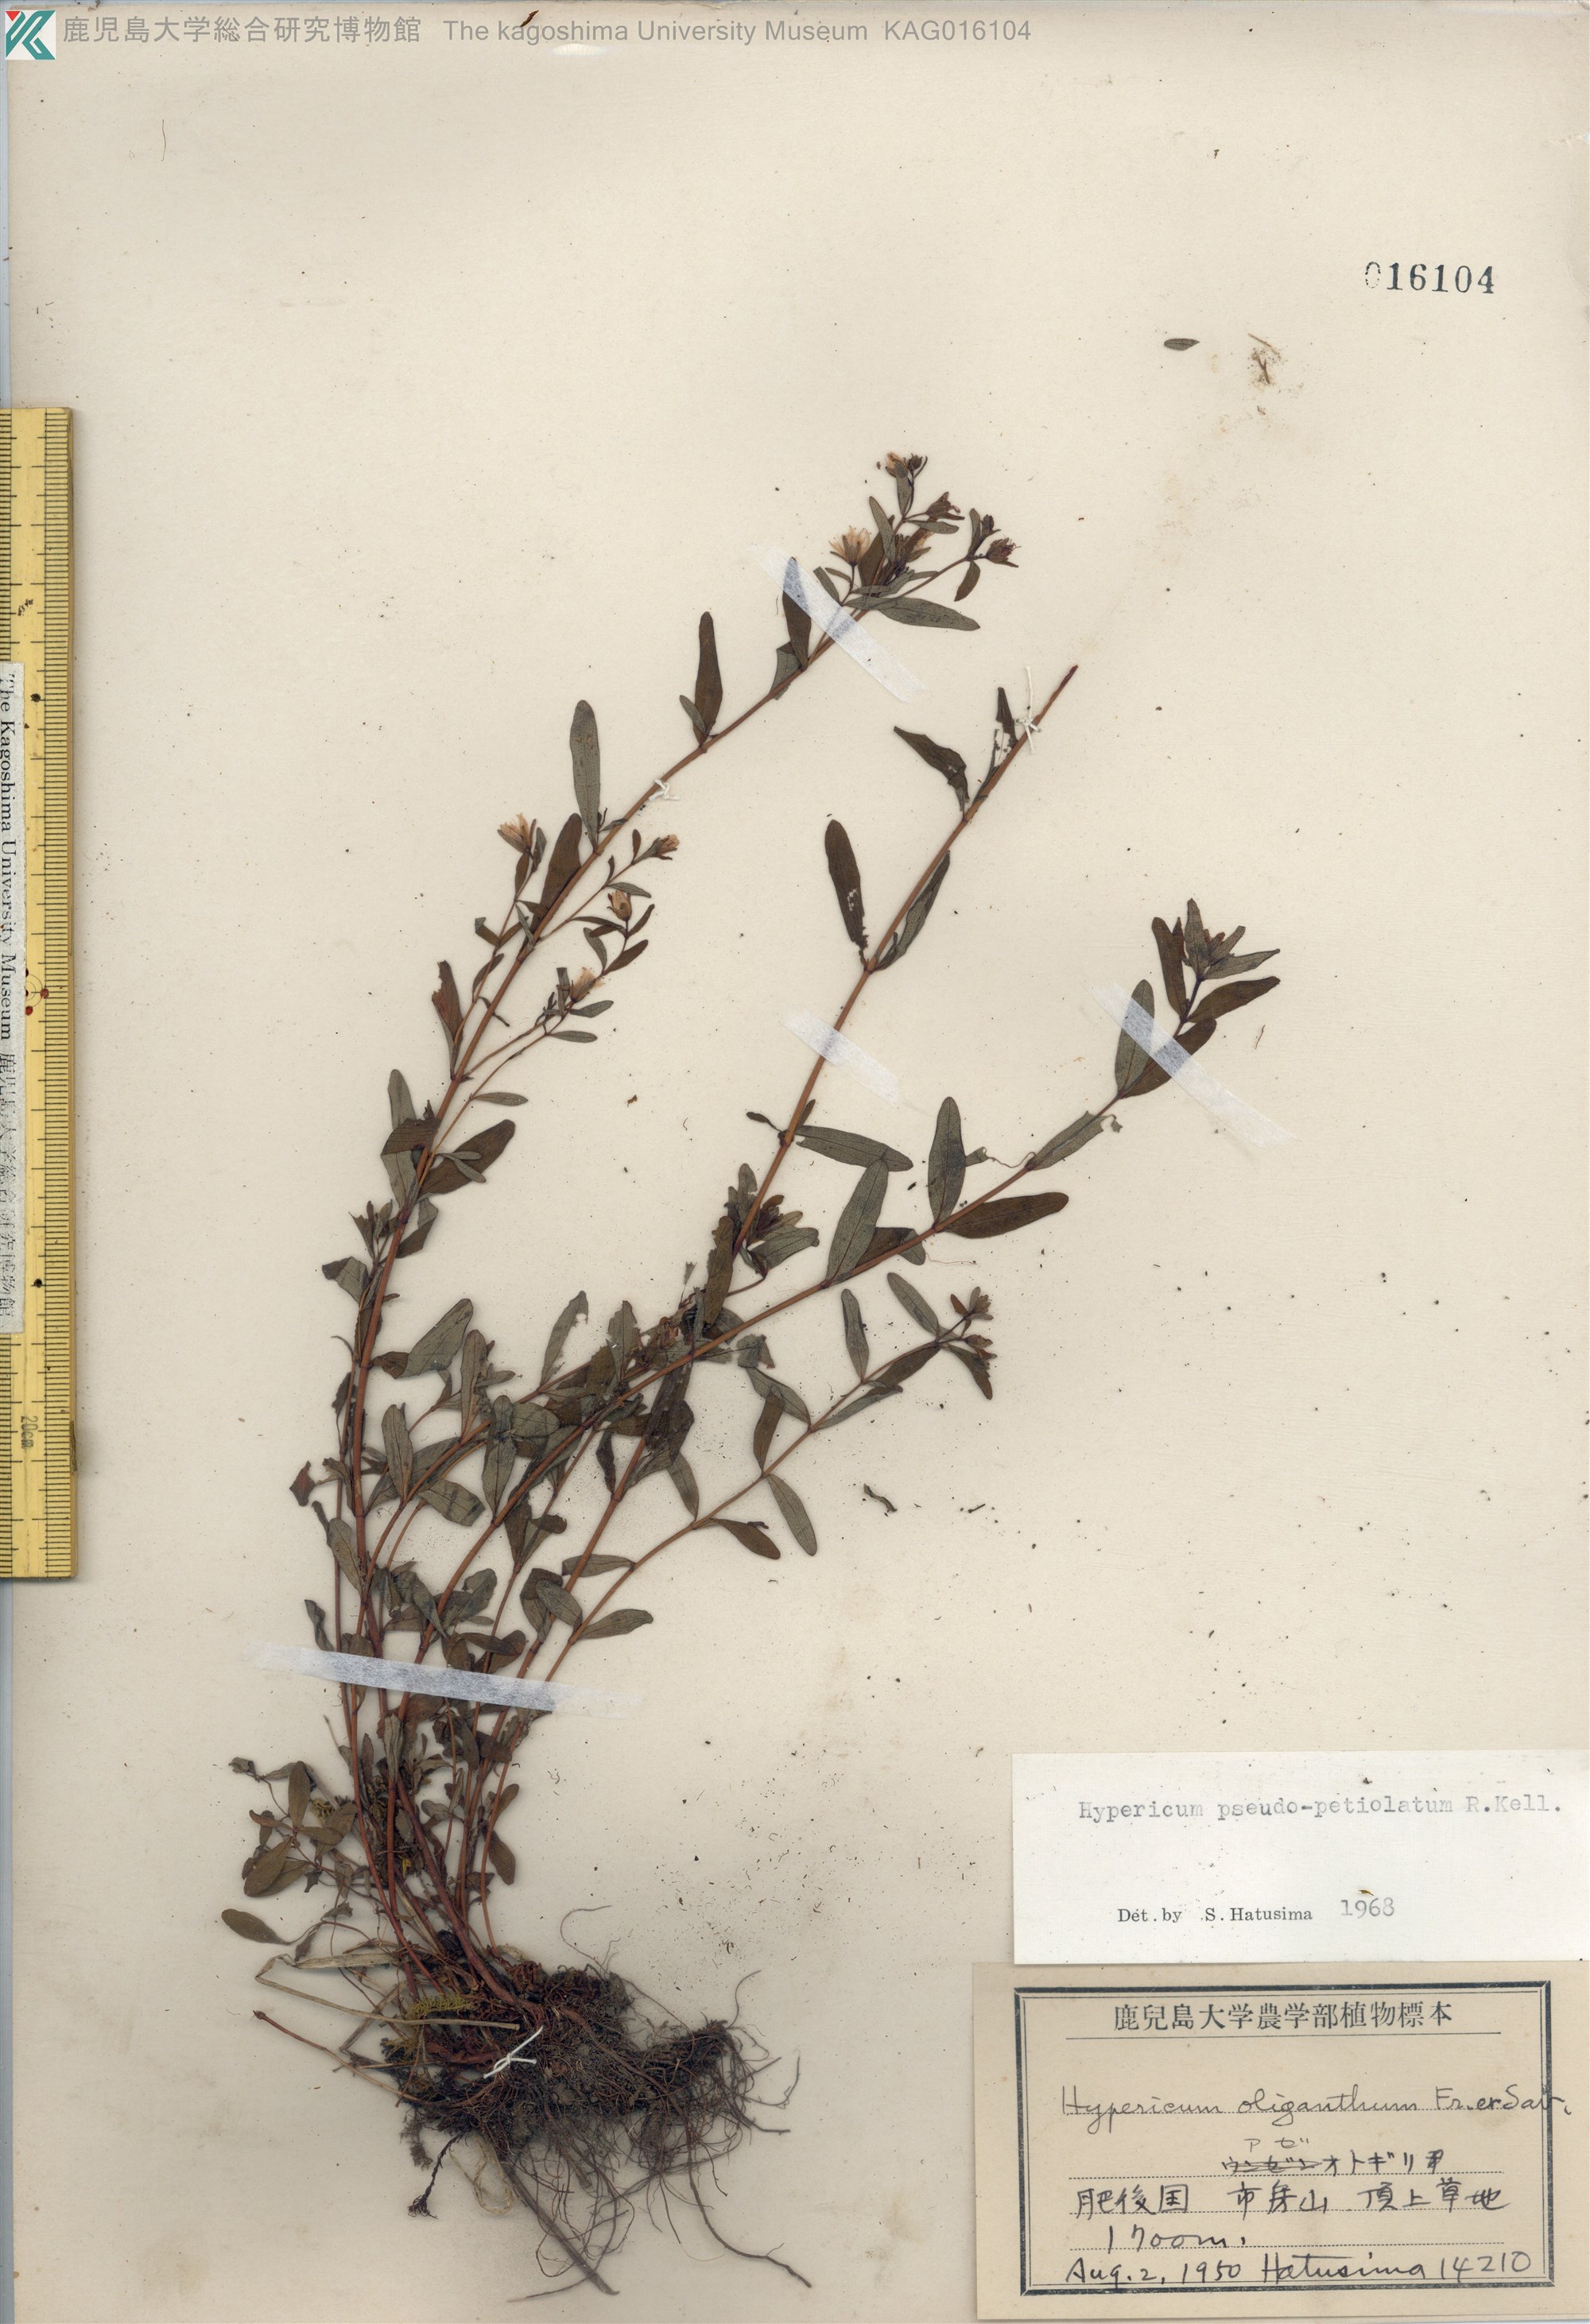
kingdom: Plantae
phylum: Tracheophyta
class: Magnoliopsida
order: Malpighiales
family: Hypericaceae
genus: Hypericum
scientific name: Hypericum pseudopetiolatum
